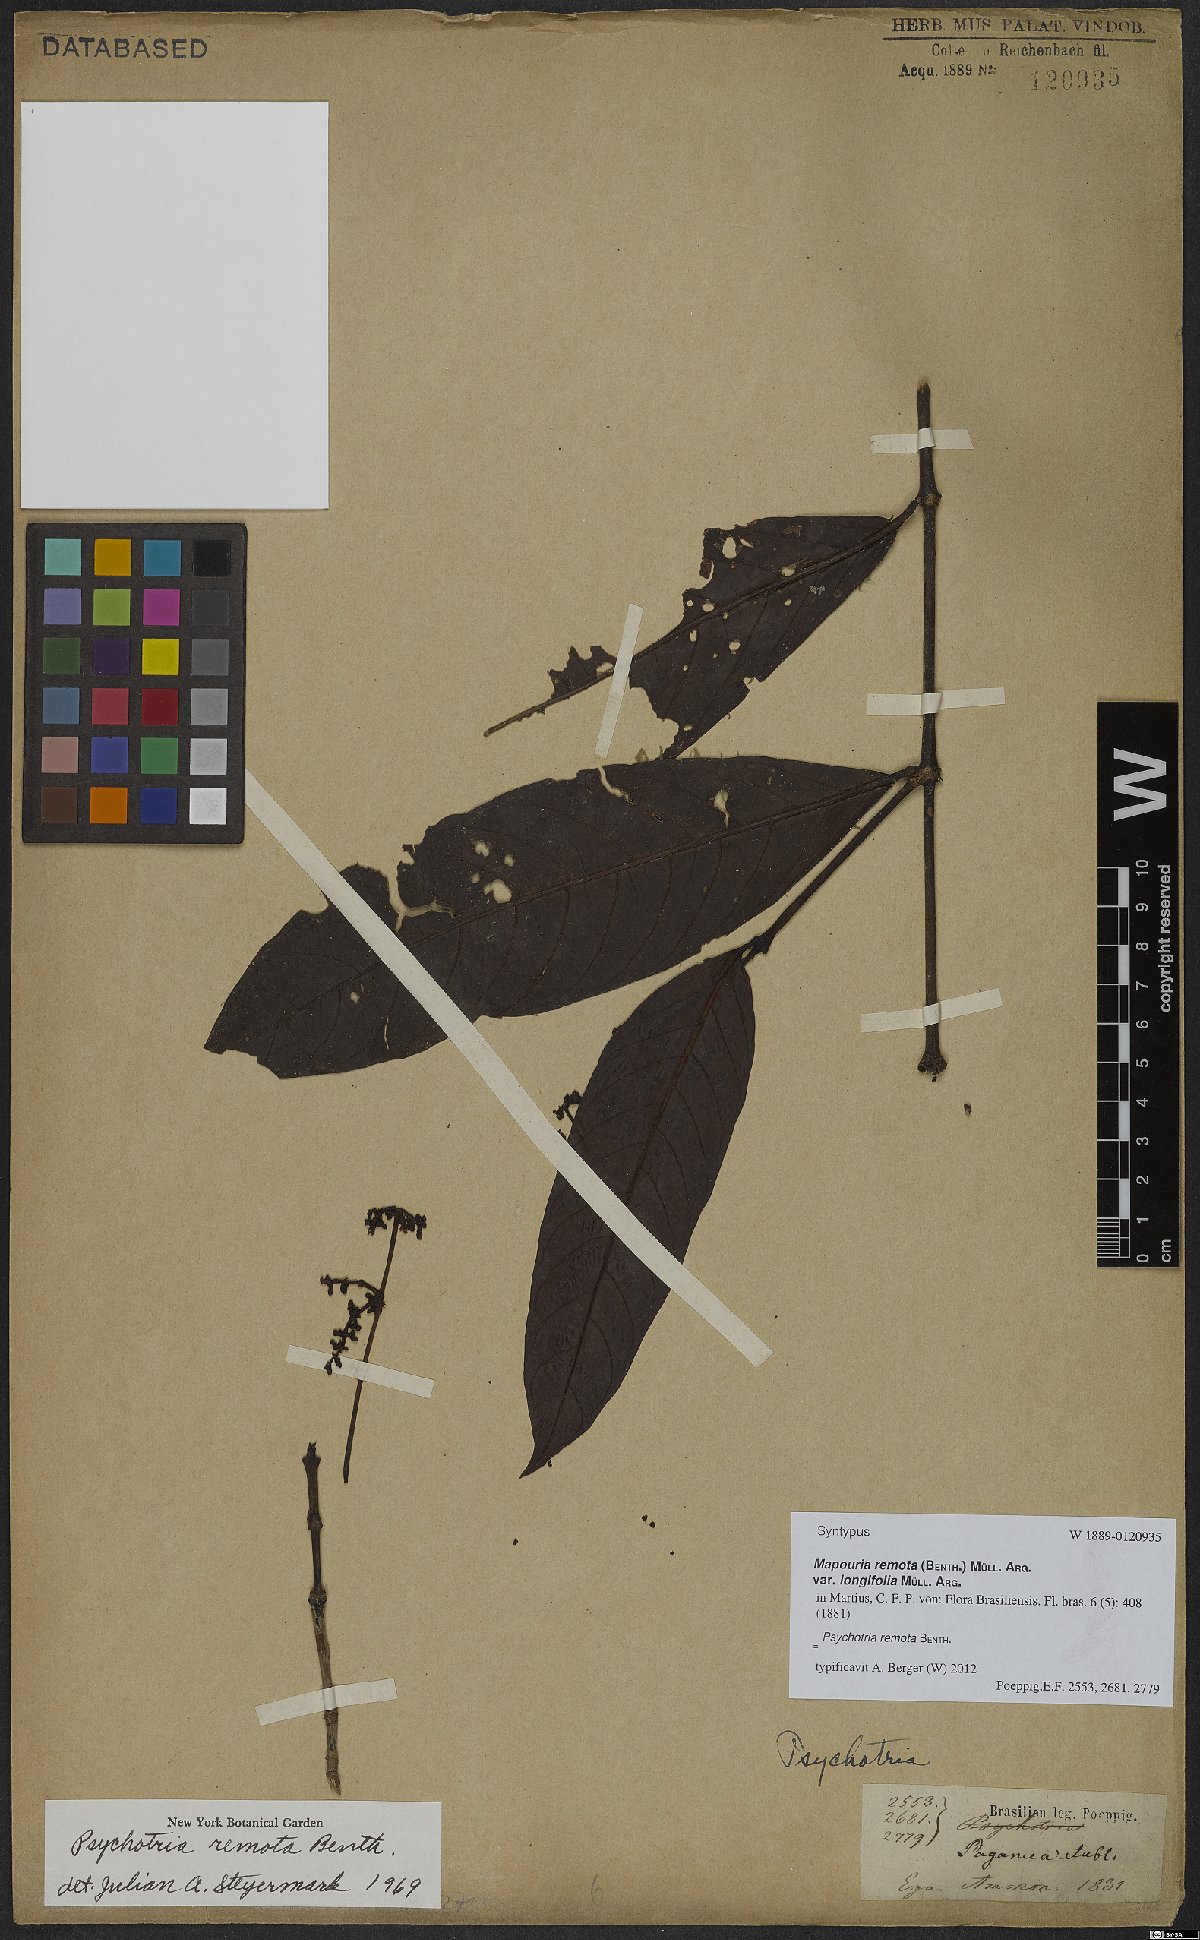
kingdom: Plantae
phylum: Tracheophyta
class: Magnoliopsida
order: Gentianales
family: Rubiaceae
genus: Psychotria
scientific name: Psychotria remota
